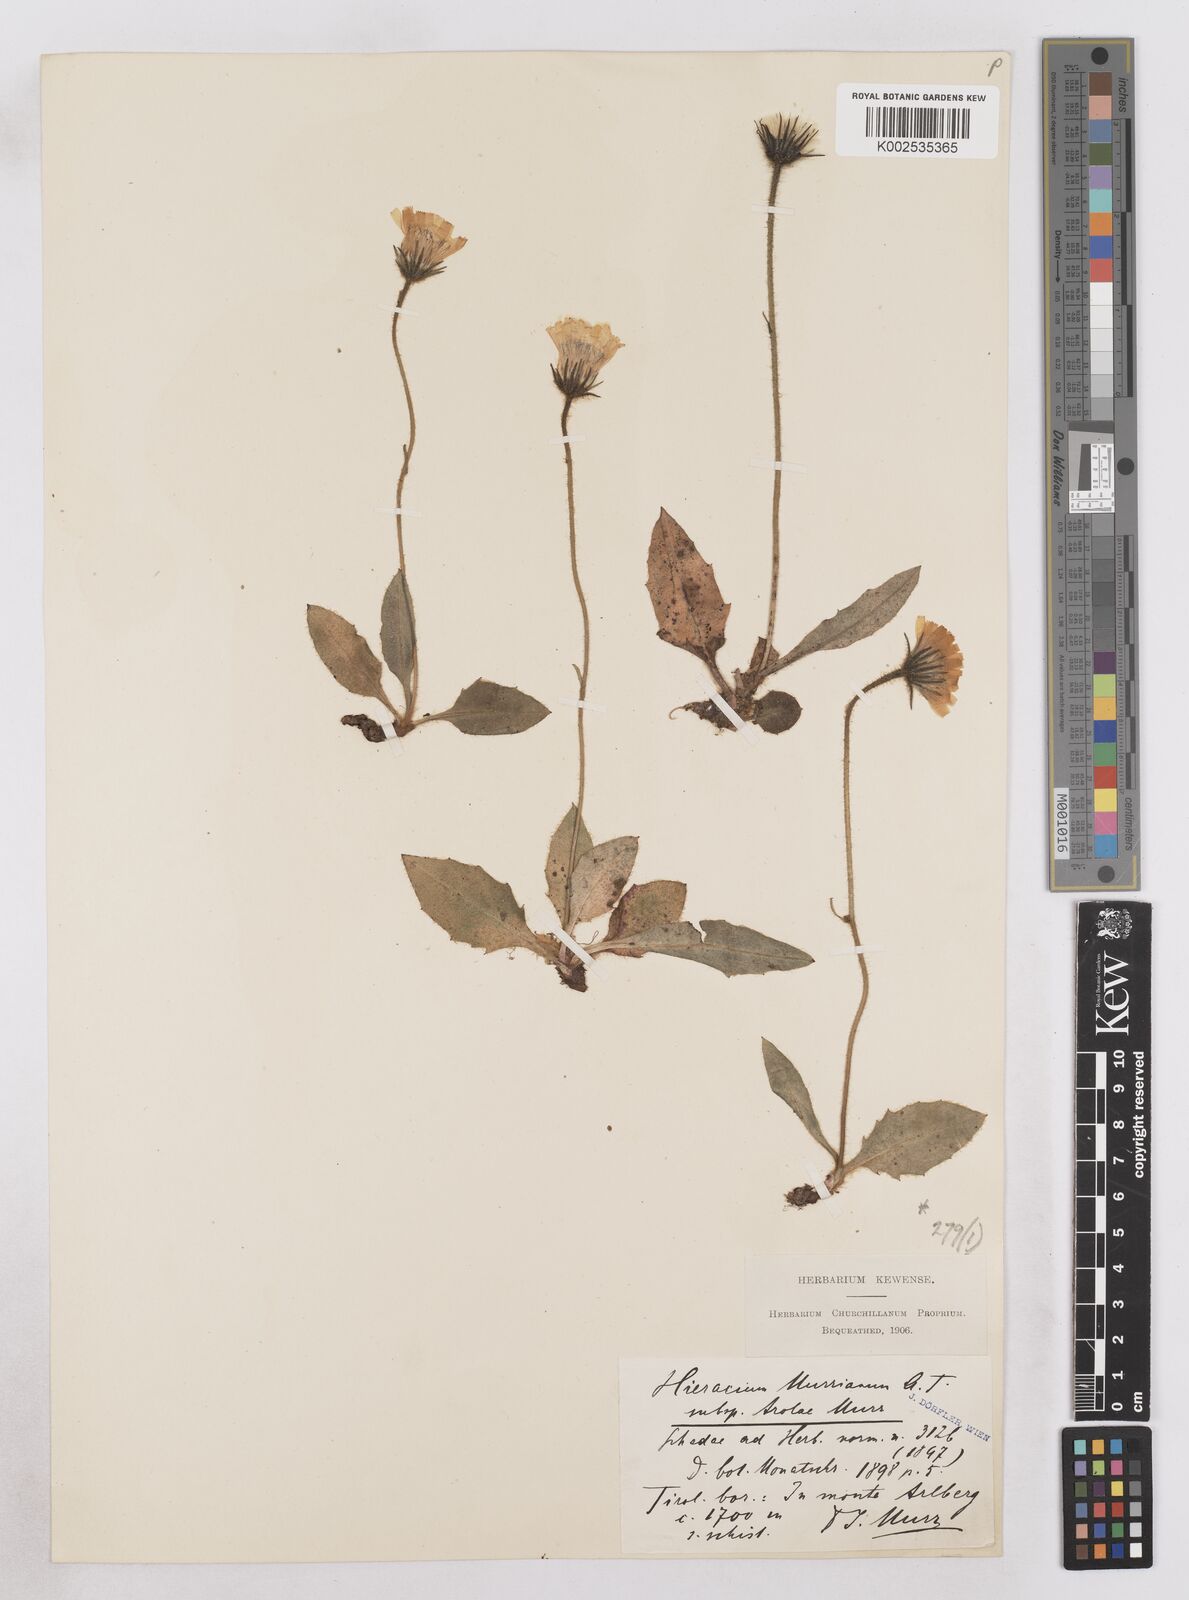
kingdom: Plantae
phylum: Tracheophyta
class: Magnoliopsida
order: Asterales
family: Asteraceae
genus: Hieracium
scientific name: Hieracium arolae
